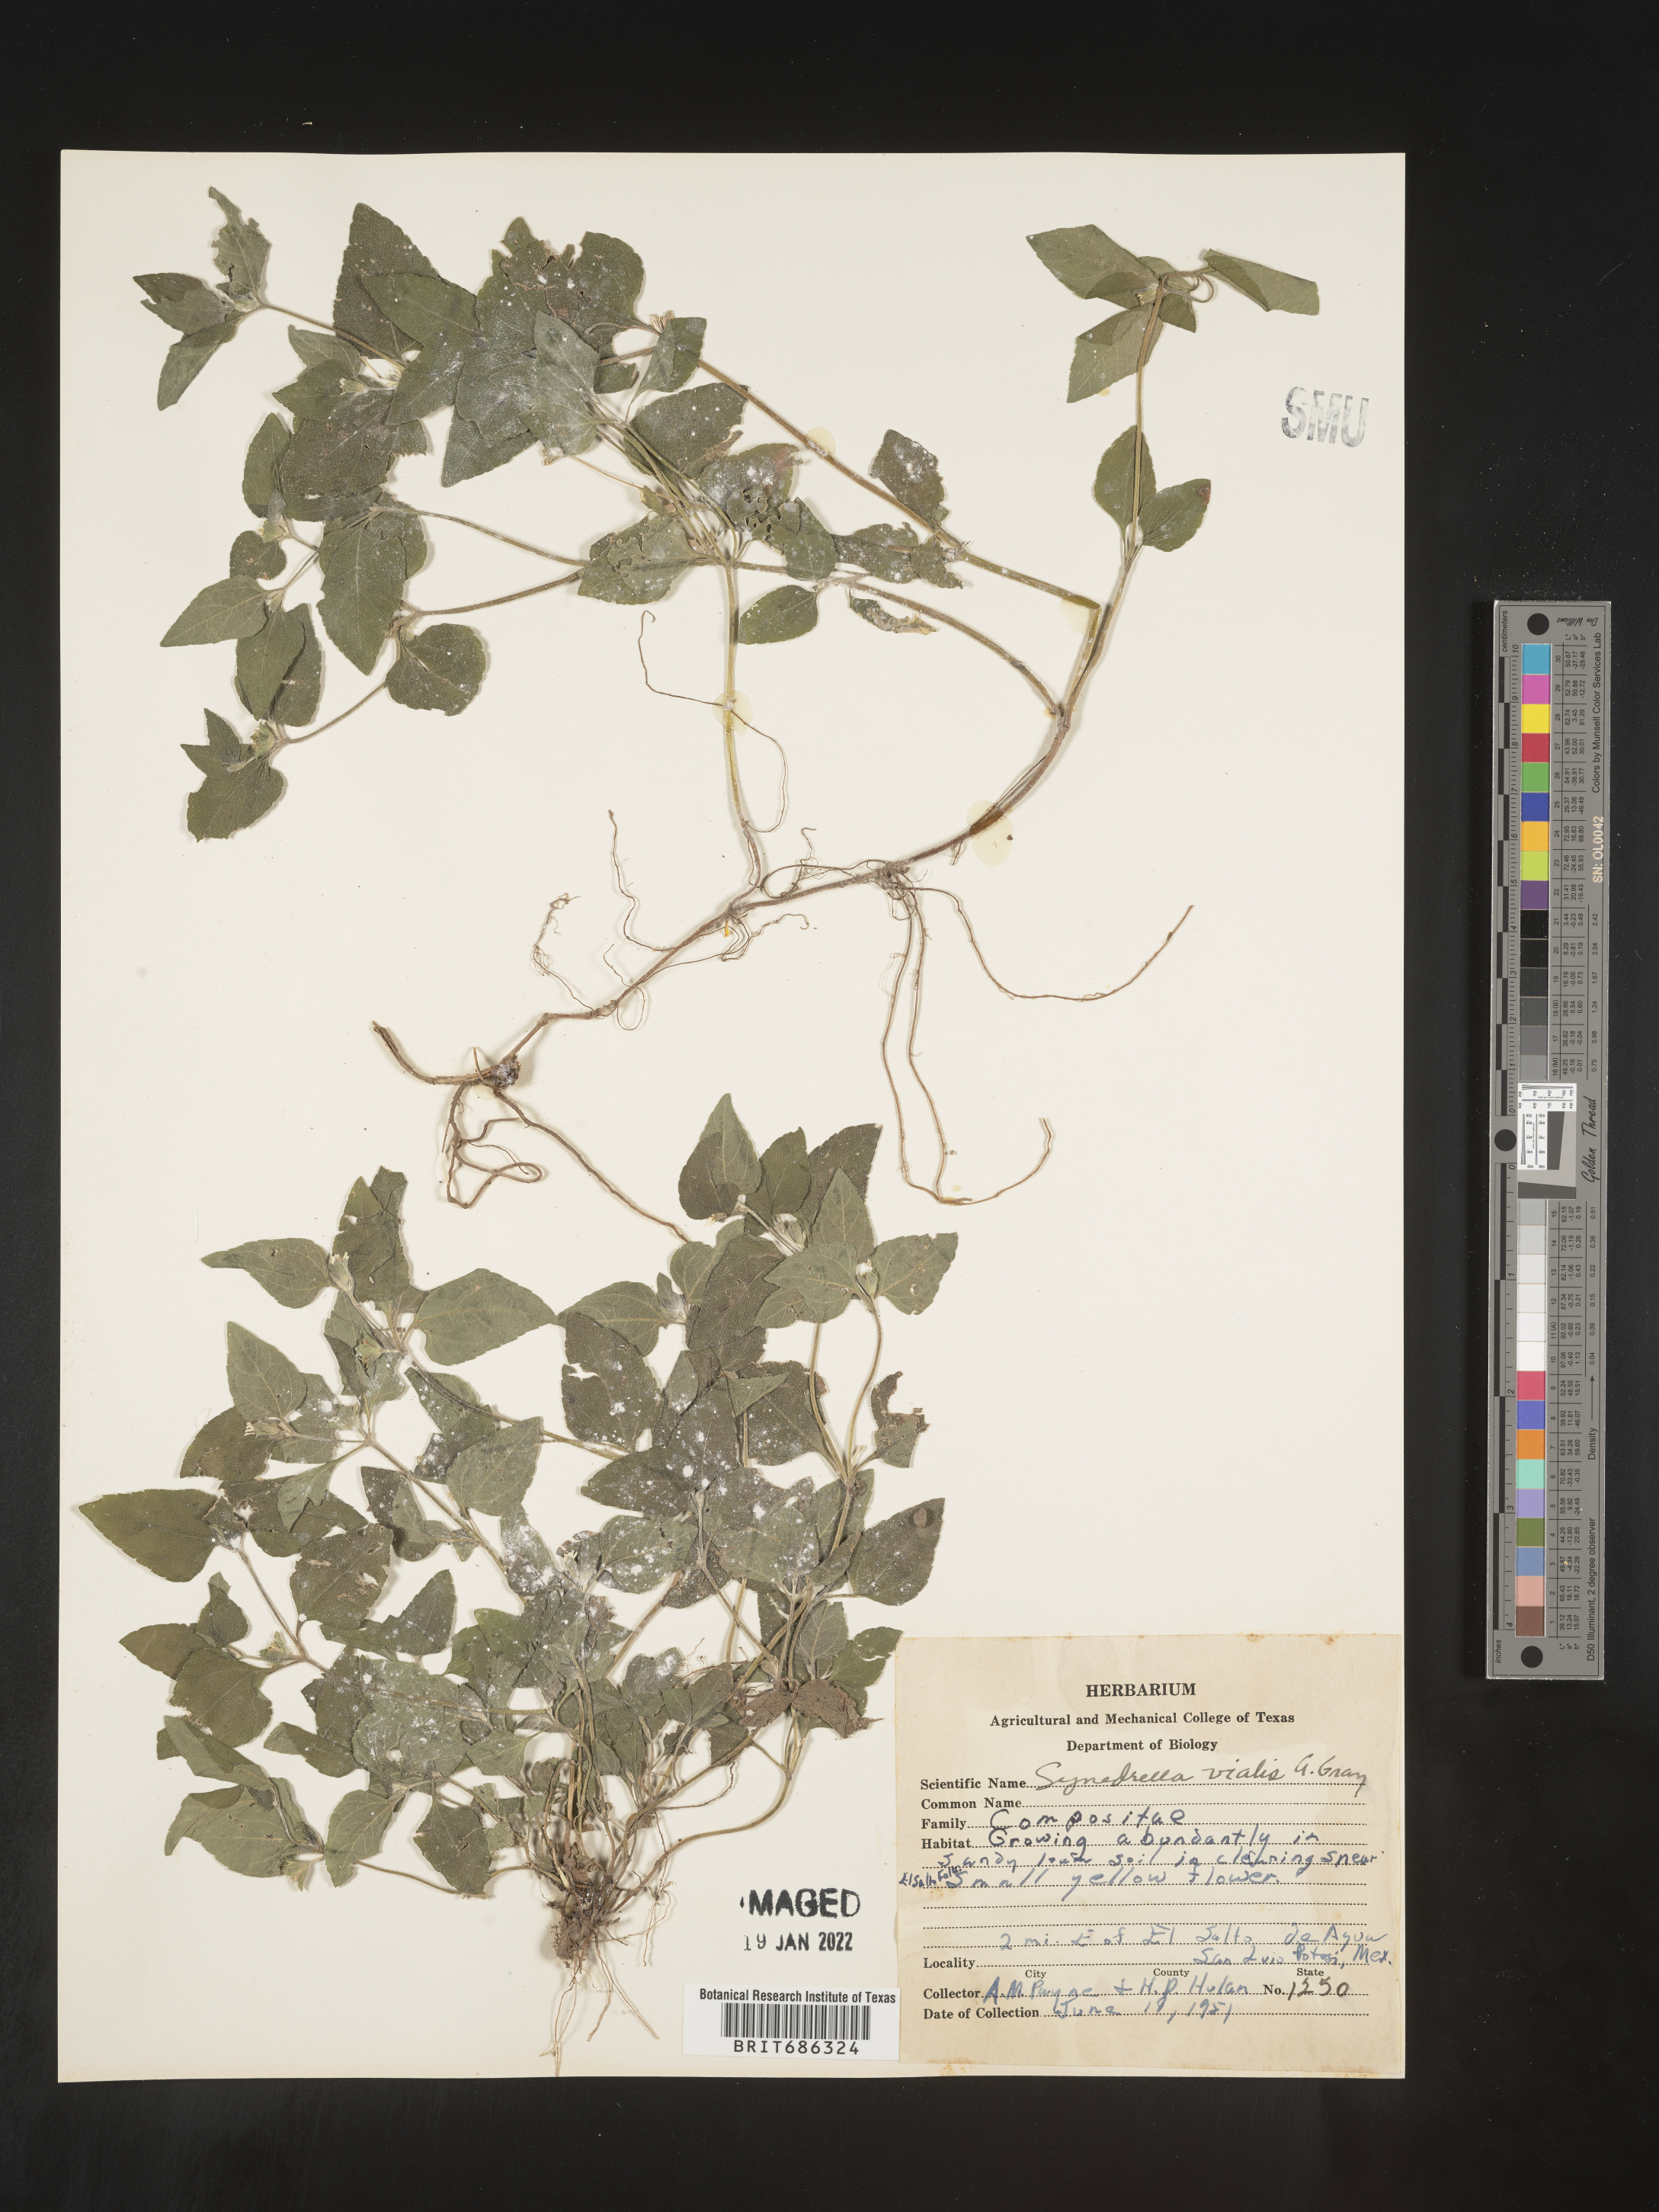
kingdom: Plantae
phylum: Tracheophyta
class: Magnoliopsida
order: Asterales
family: Asteraceae
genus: Calyptocarpus
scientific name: Calyptocarpus
